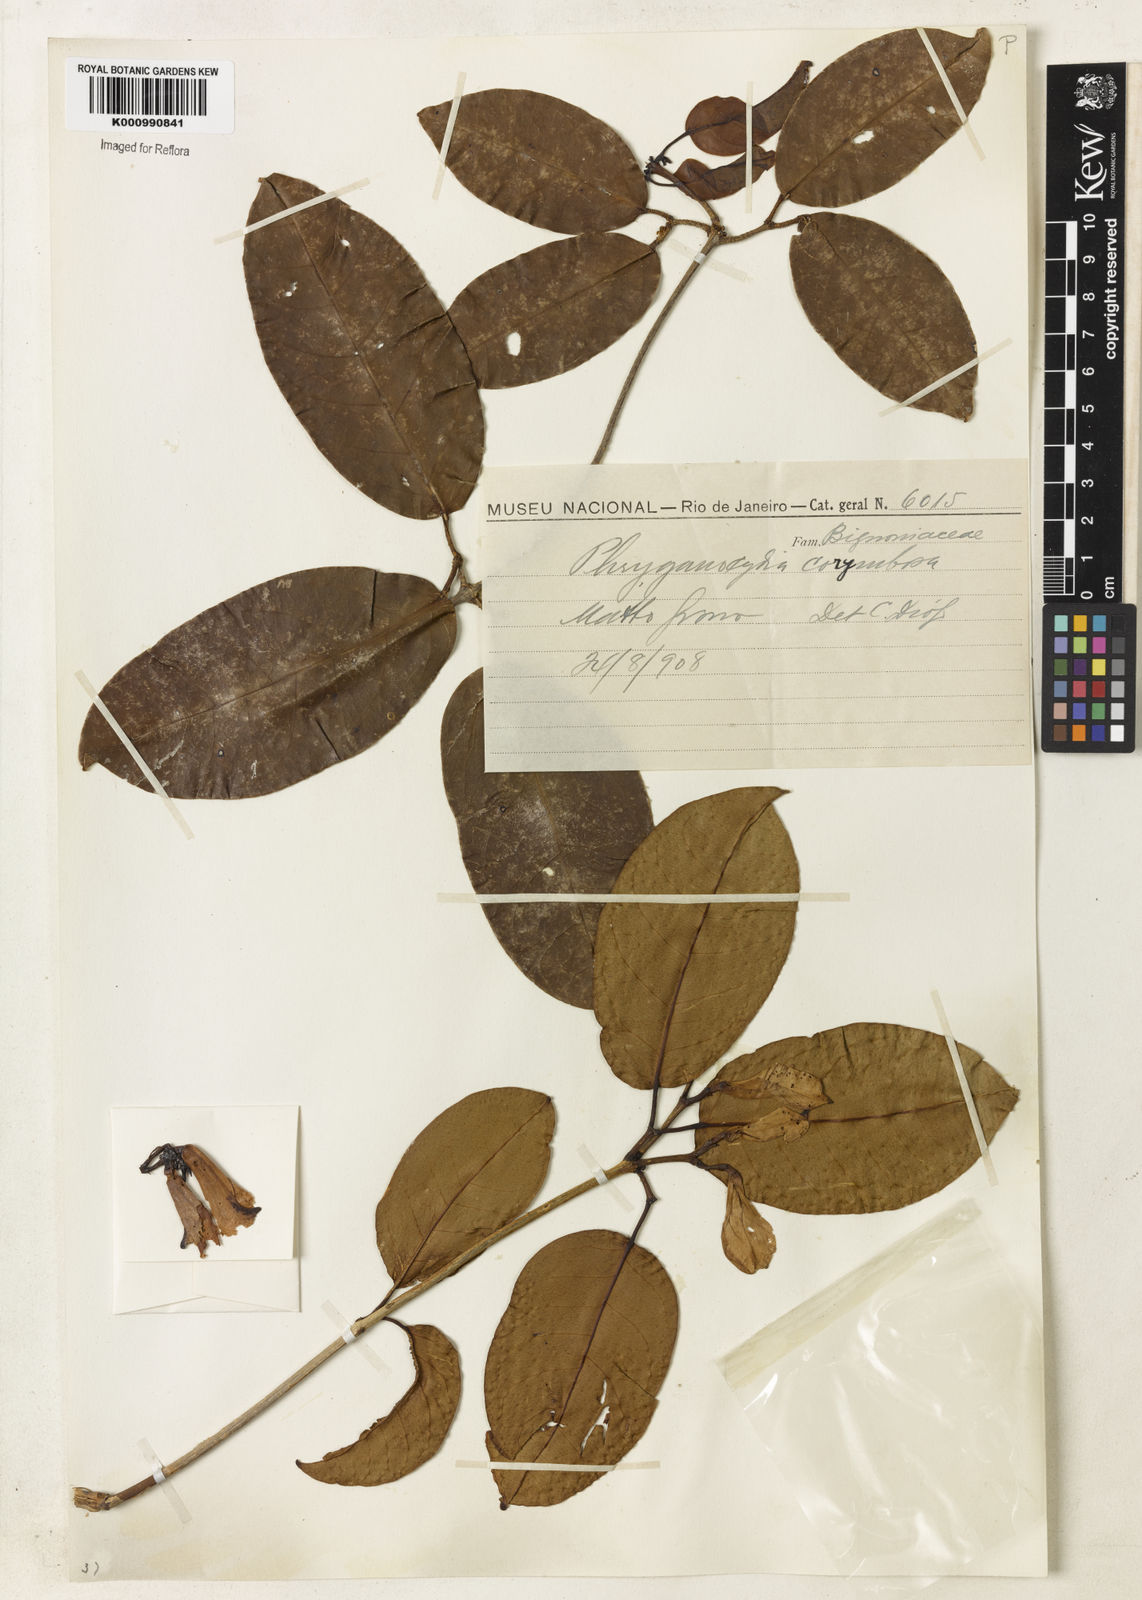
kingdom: Plantae
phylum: Tracheophyta
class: Magnoliopsida
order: Lamiales
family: Bignoniaceae
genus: Bignonia
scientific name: Bignonia corymbosa
